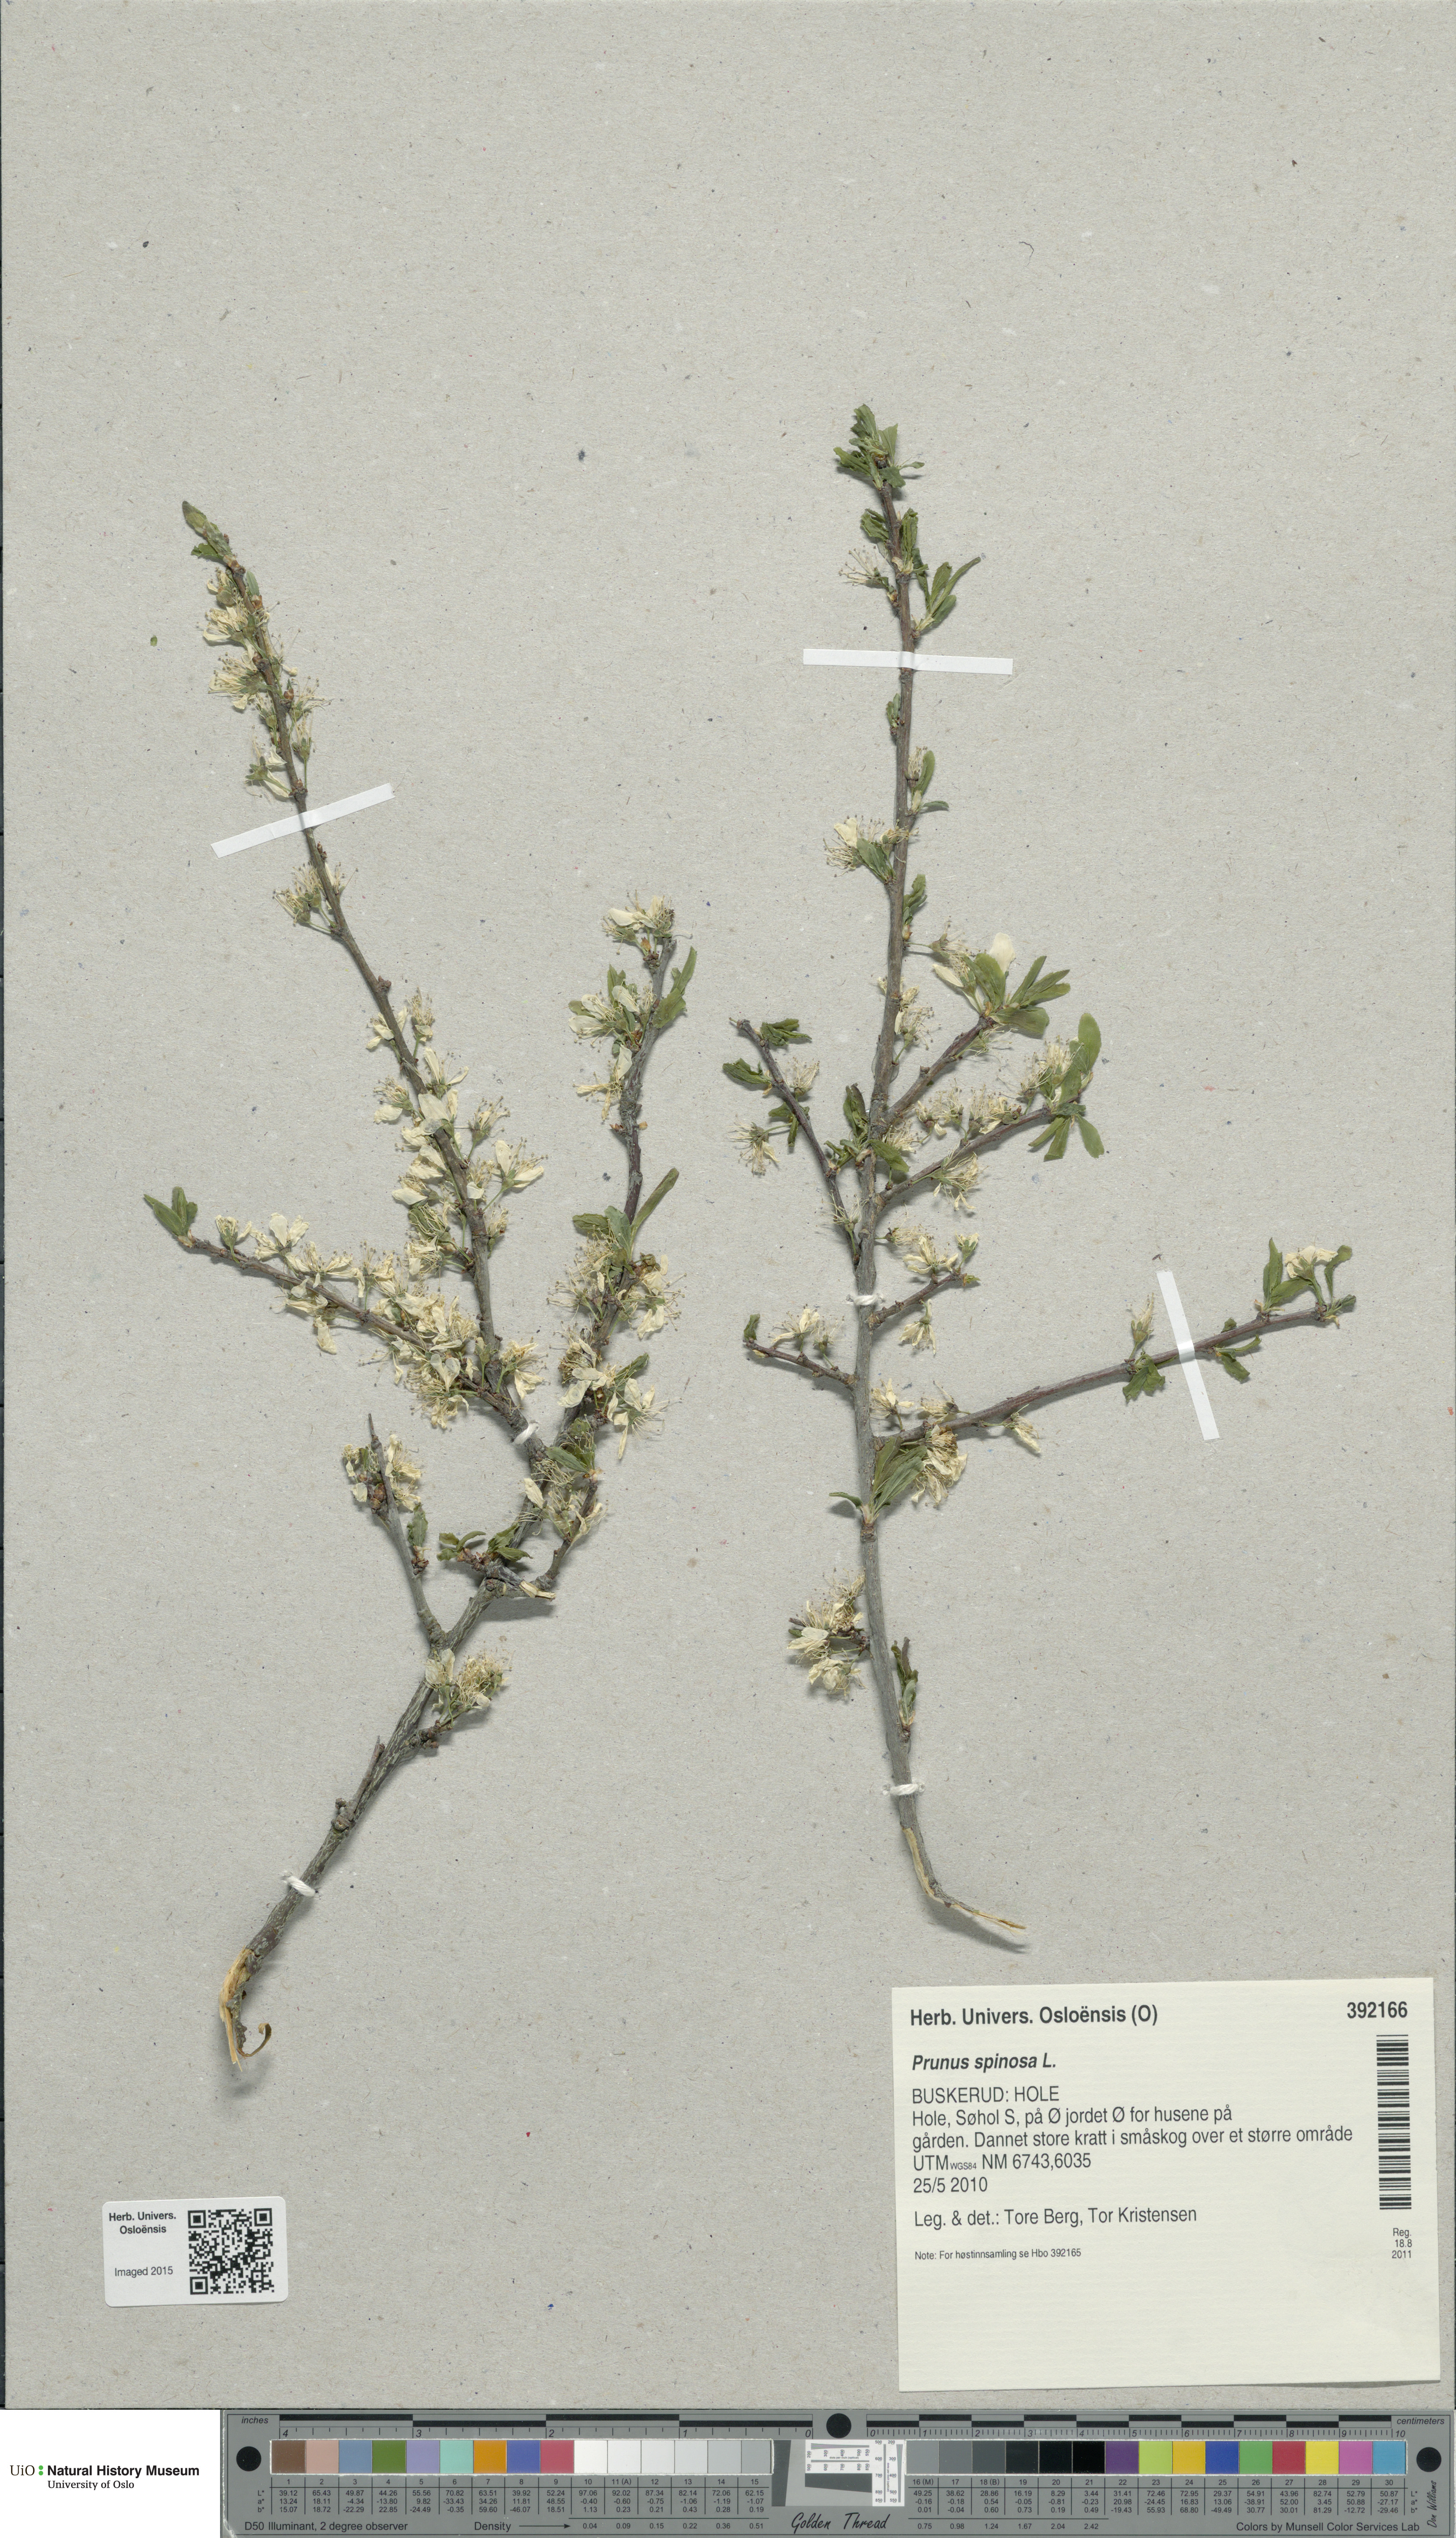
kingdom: Plantae
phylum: Tracheophyta
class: Magnoliopsida
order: Rosales
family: Rosaceae
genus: Prunus
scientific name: Prunus spinosa
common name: Blackthorn
